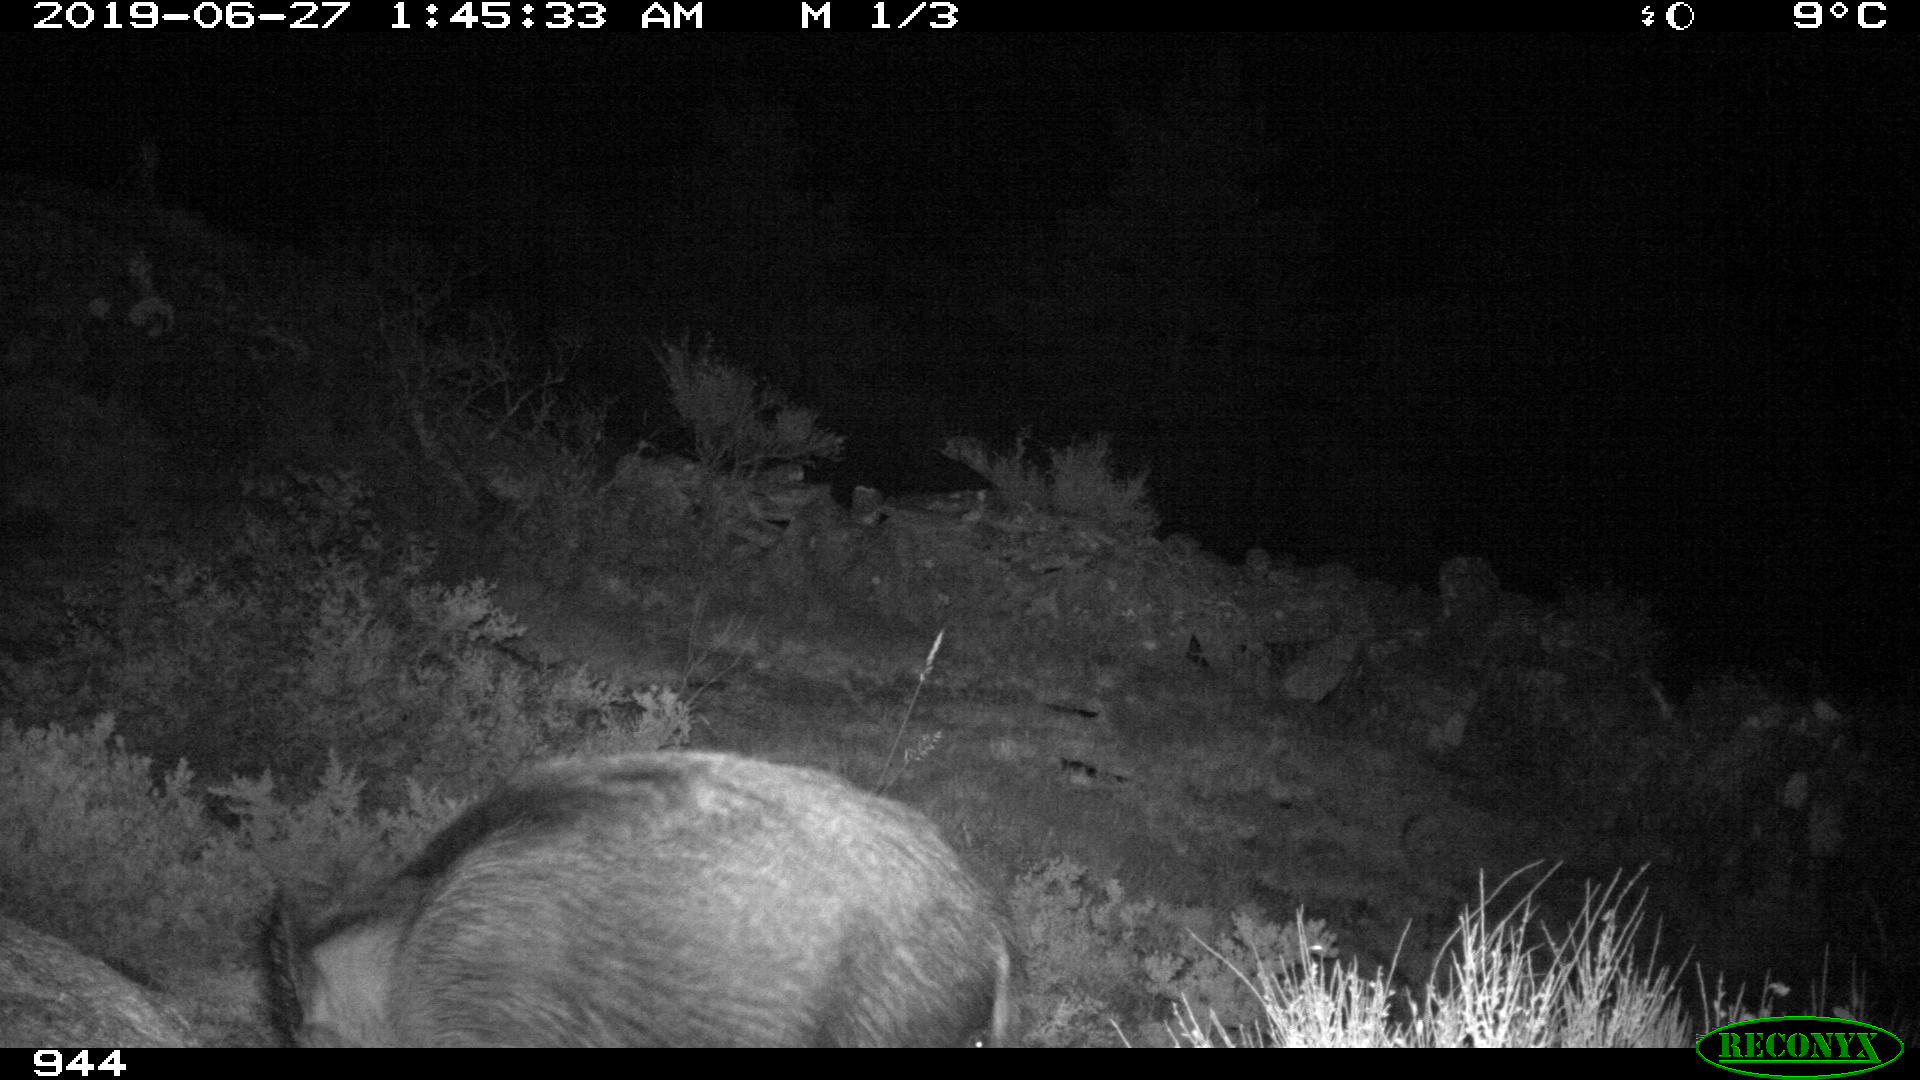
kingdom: Animalia
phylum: Chordata
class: Mammalia
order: Artiodactyla
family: Suidae
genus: Sus
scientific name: Sus scrofa
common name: Wild boar
